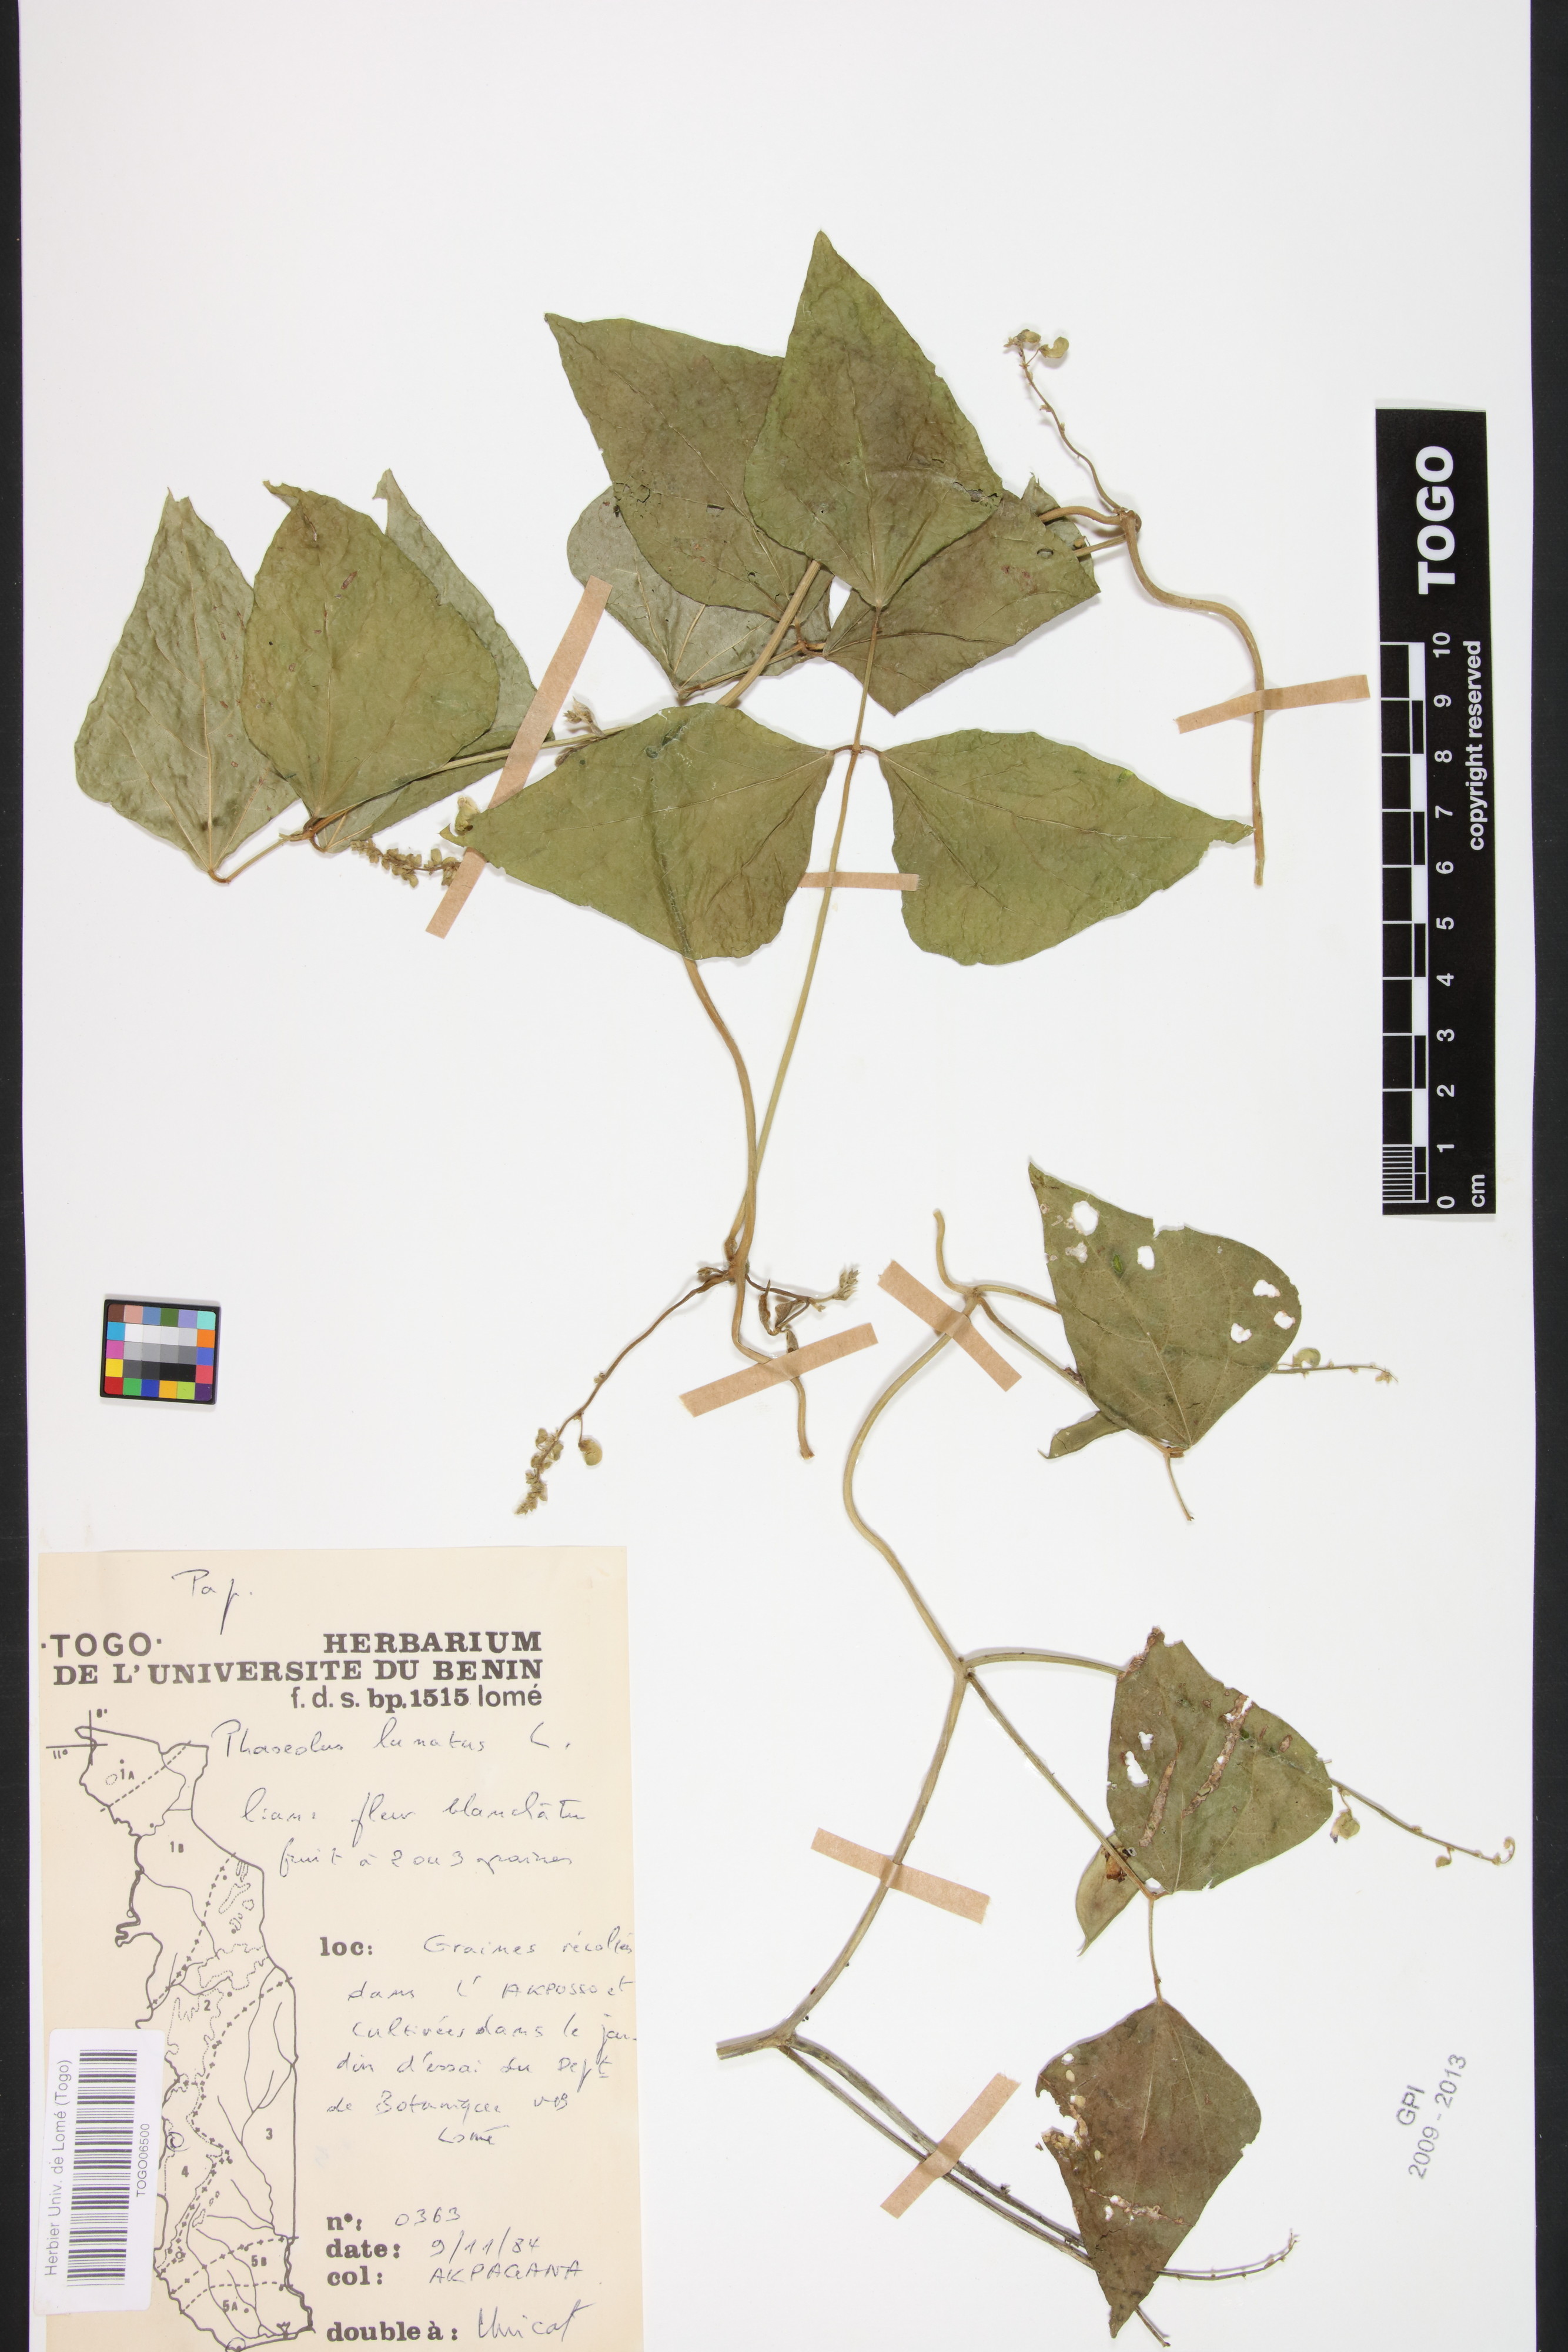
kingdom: Plantae
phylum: Tracheophyta
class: Magnoliopsida
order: Fabales
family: Fabaceae
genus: Phaseolus
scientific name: Phaseolus lunatus
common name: Sieva bean
